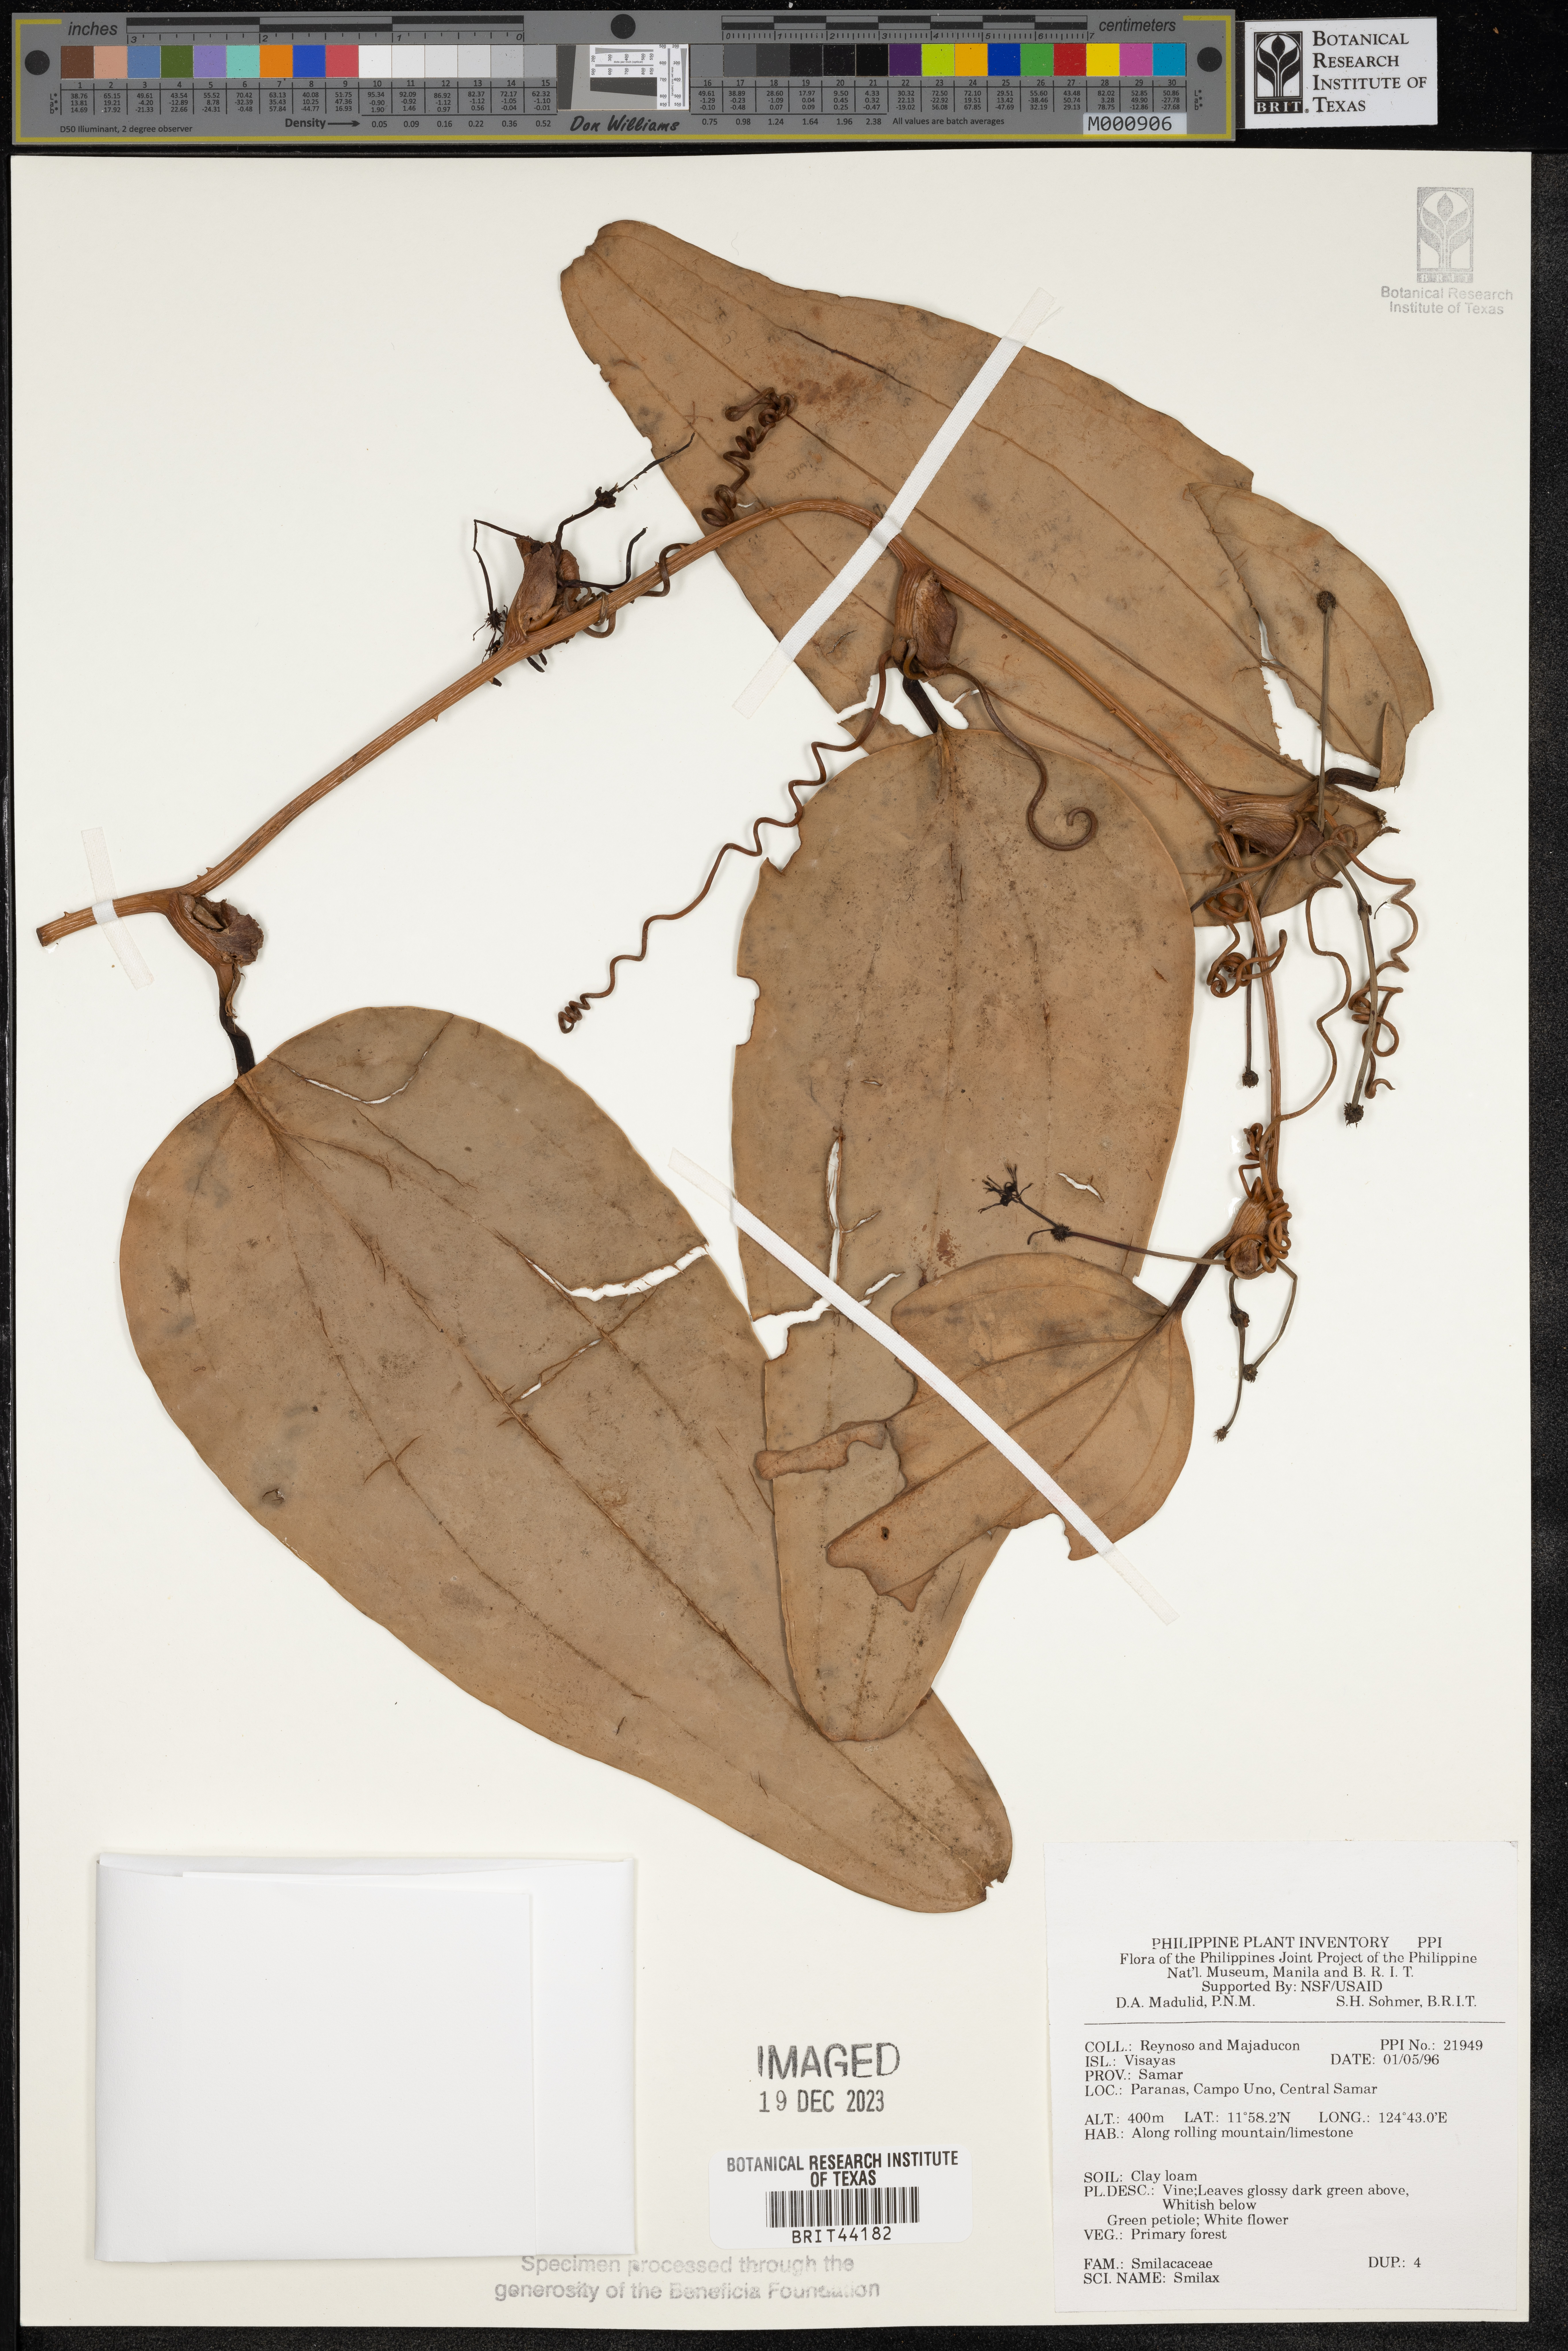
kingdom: Plantae
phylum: Tracheophyta
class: Liliopsida
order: Liliales
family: Smilacaceae
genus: Smilax
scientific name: Smilax
